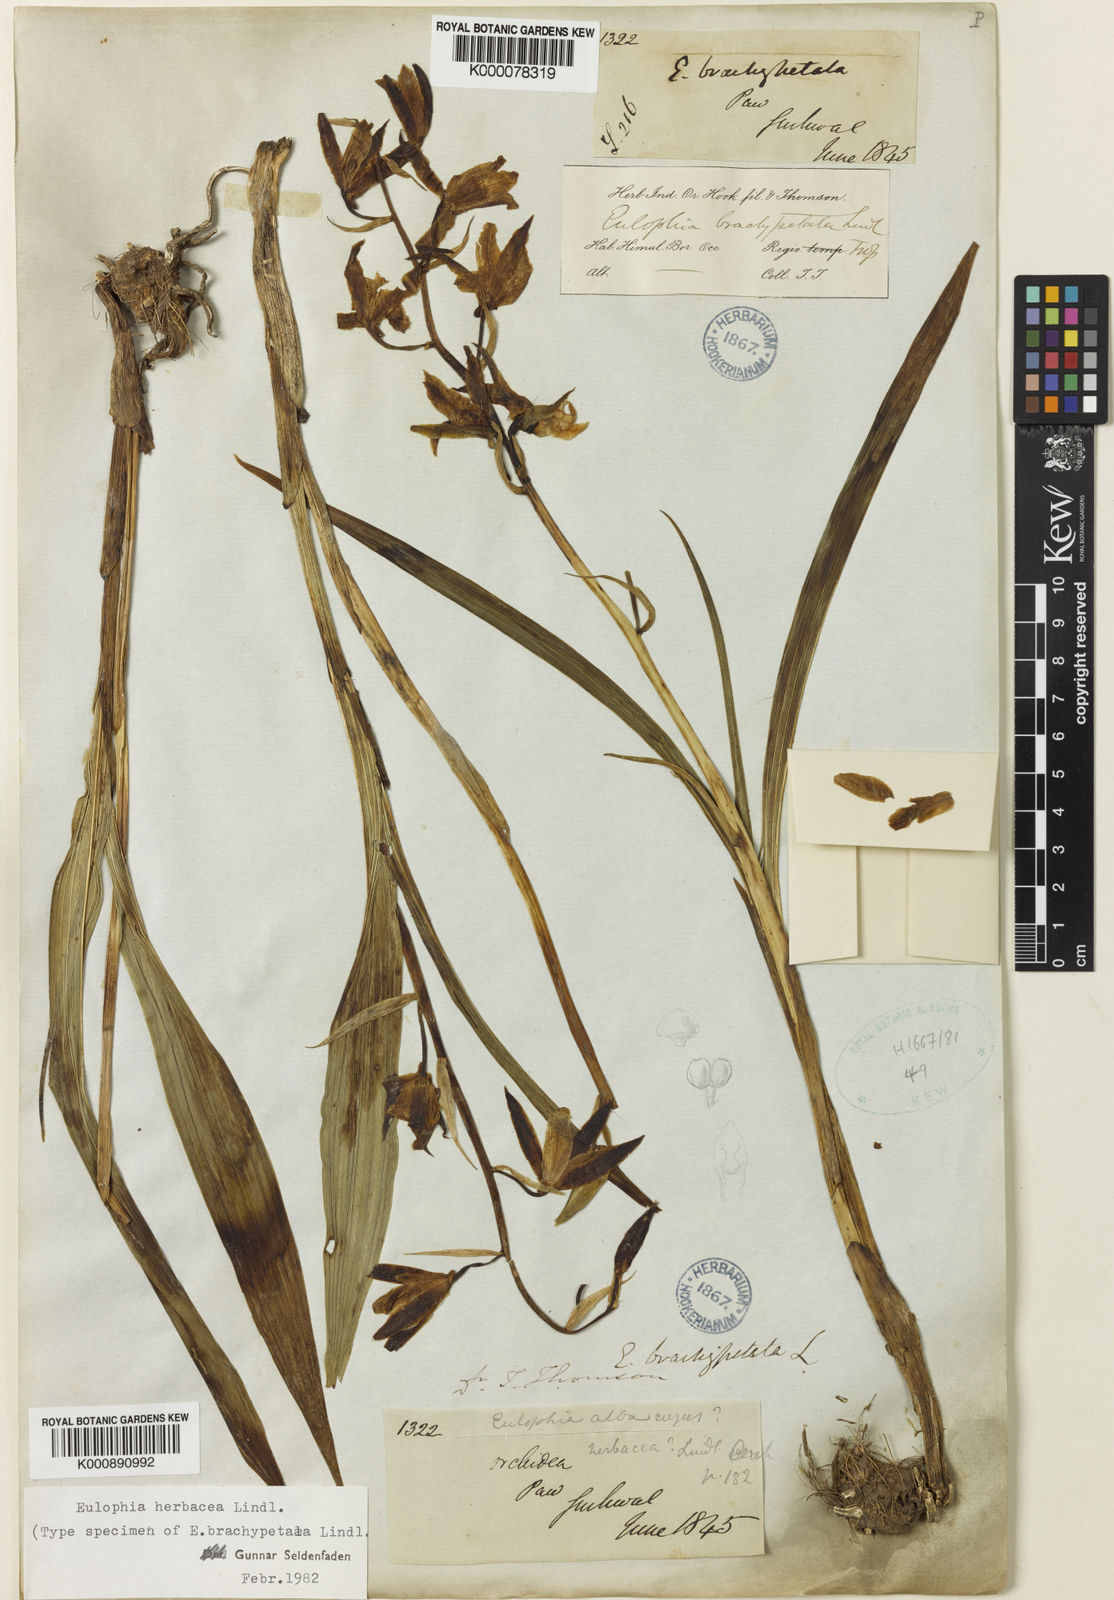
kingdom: Plantae
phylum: Tracheophyta
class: Liliopsida
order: Asparagales
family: Orchidaceae
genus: Eulophia
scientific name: Eulophia herbacea
